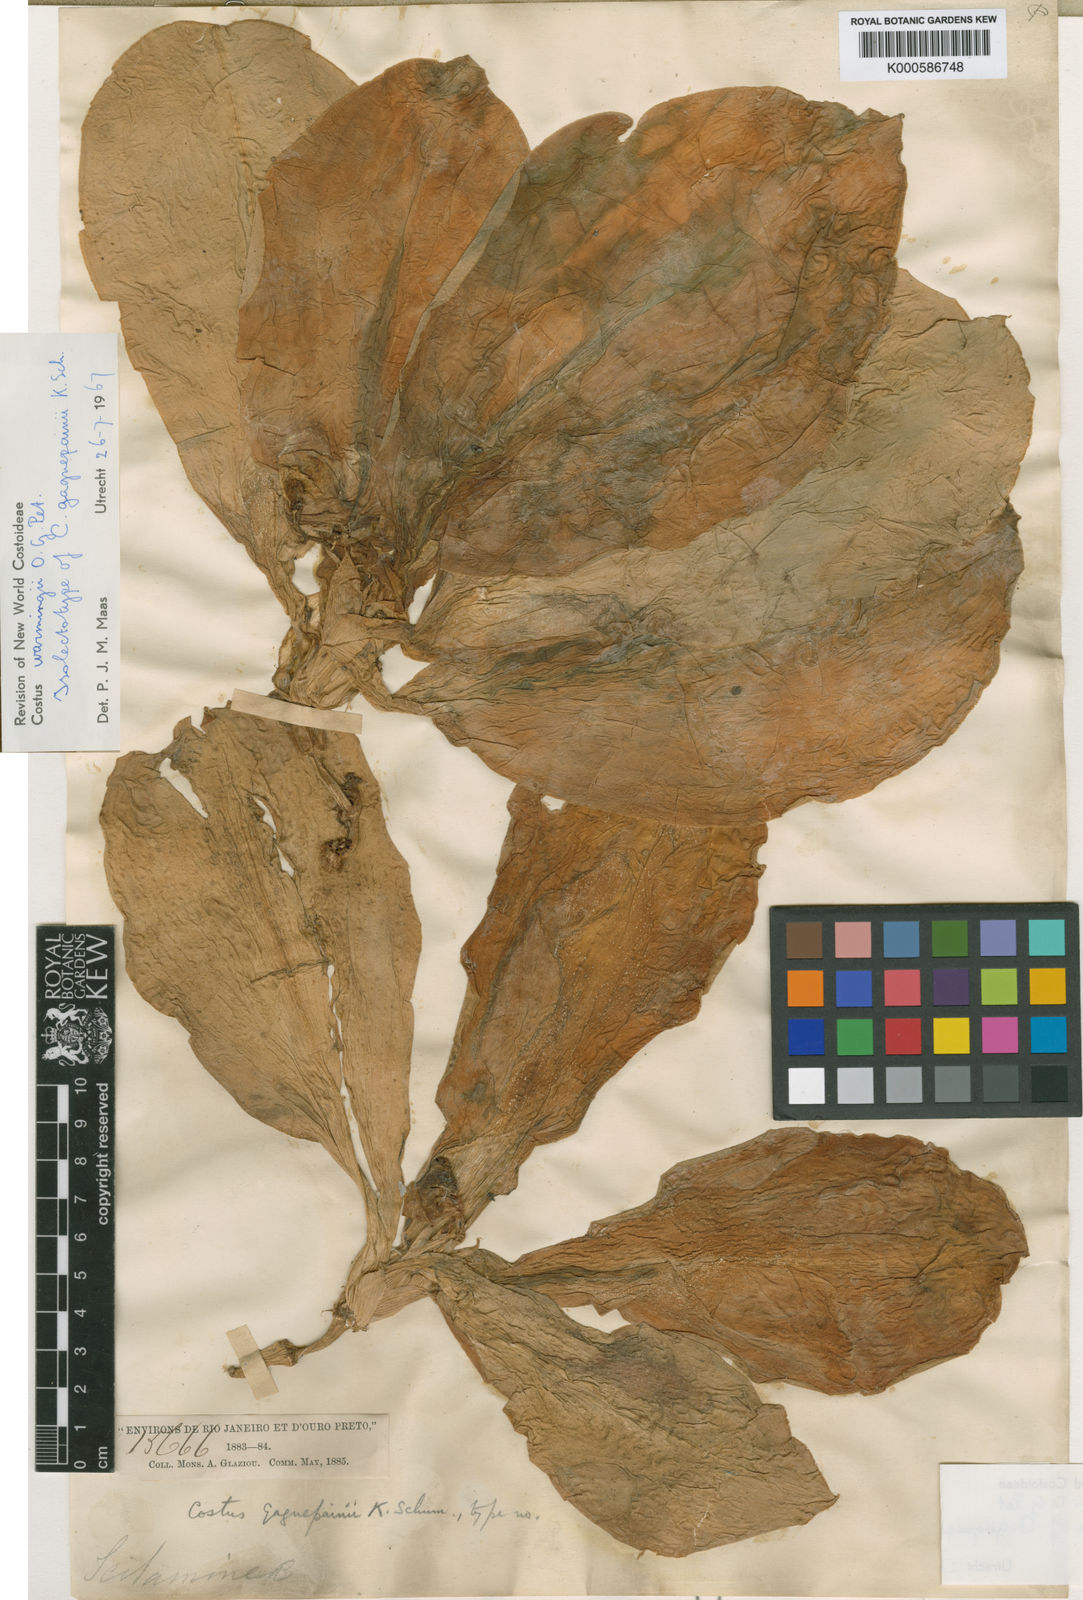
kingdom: Plantae
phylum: Tracheophyta
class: Liliopsida
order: Zingiberales
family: Costaceae
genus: Chamaecostus
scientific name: Chamaecostus subsessilis
